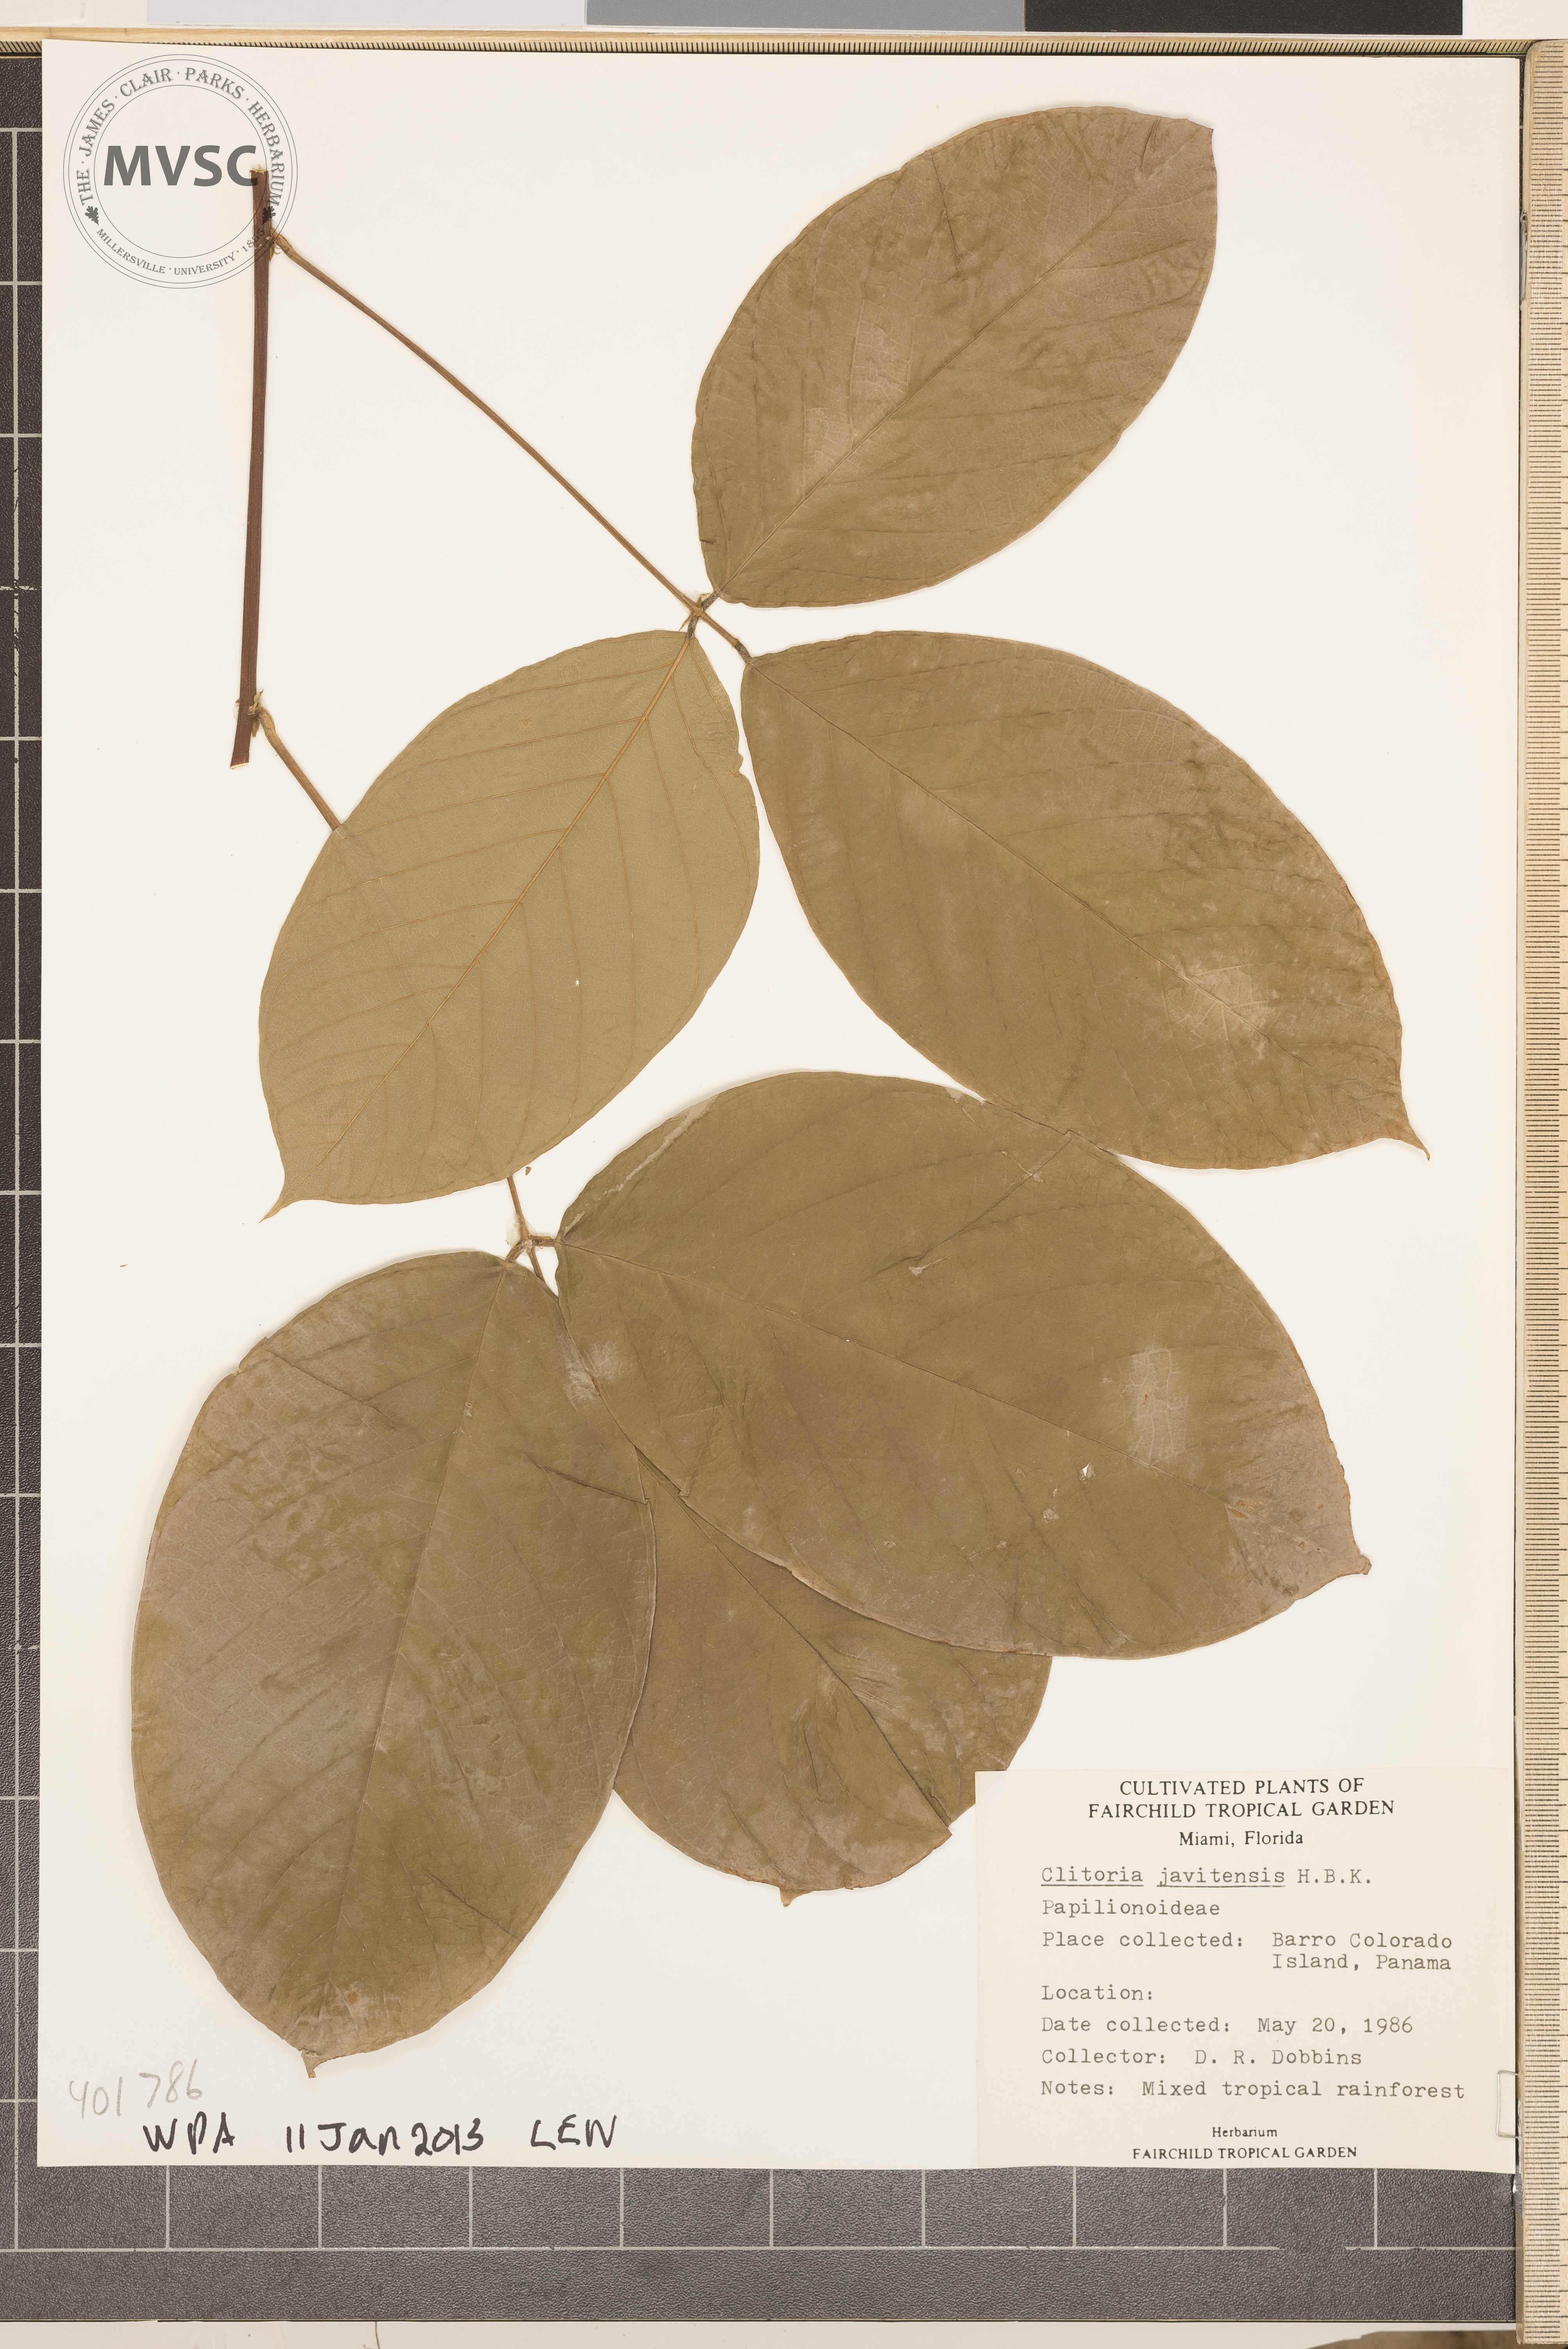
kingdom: Plantae
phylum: Tracheophyta
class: Magnoliopsida
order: Fabales
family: Fabaceae
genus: Clitoria
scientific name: Clitoria javitensis
